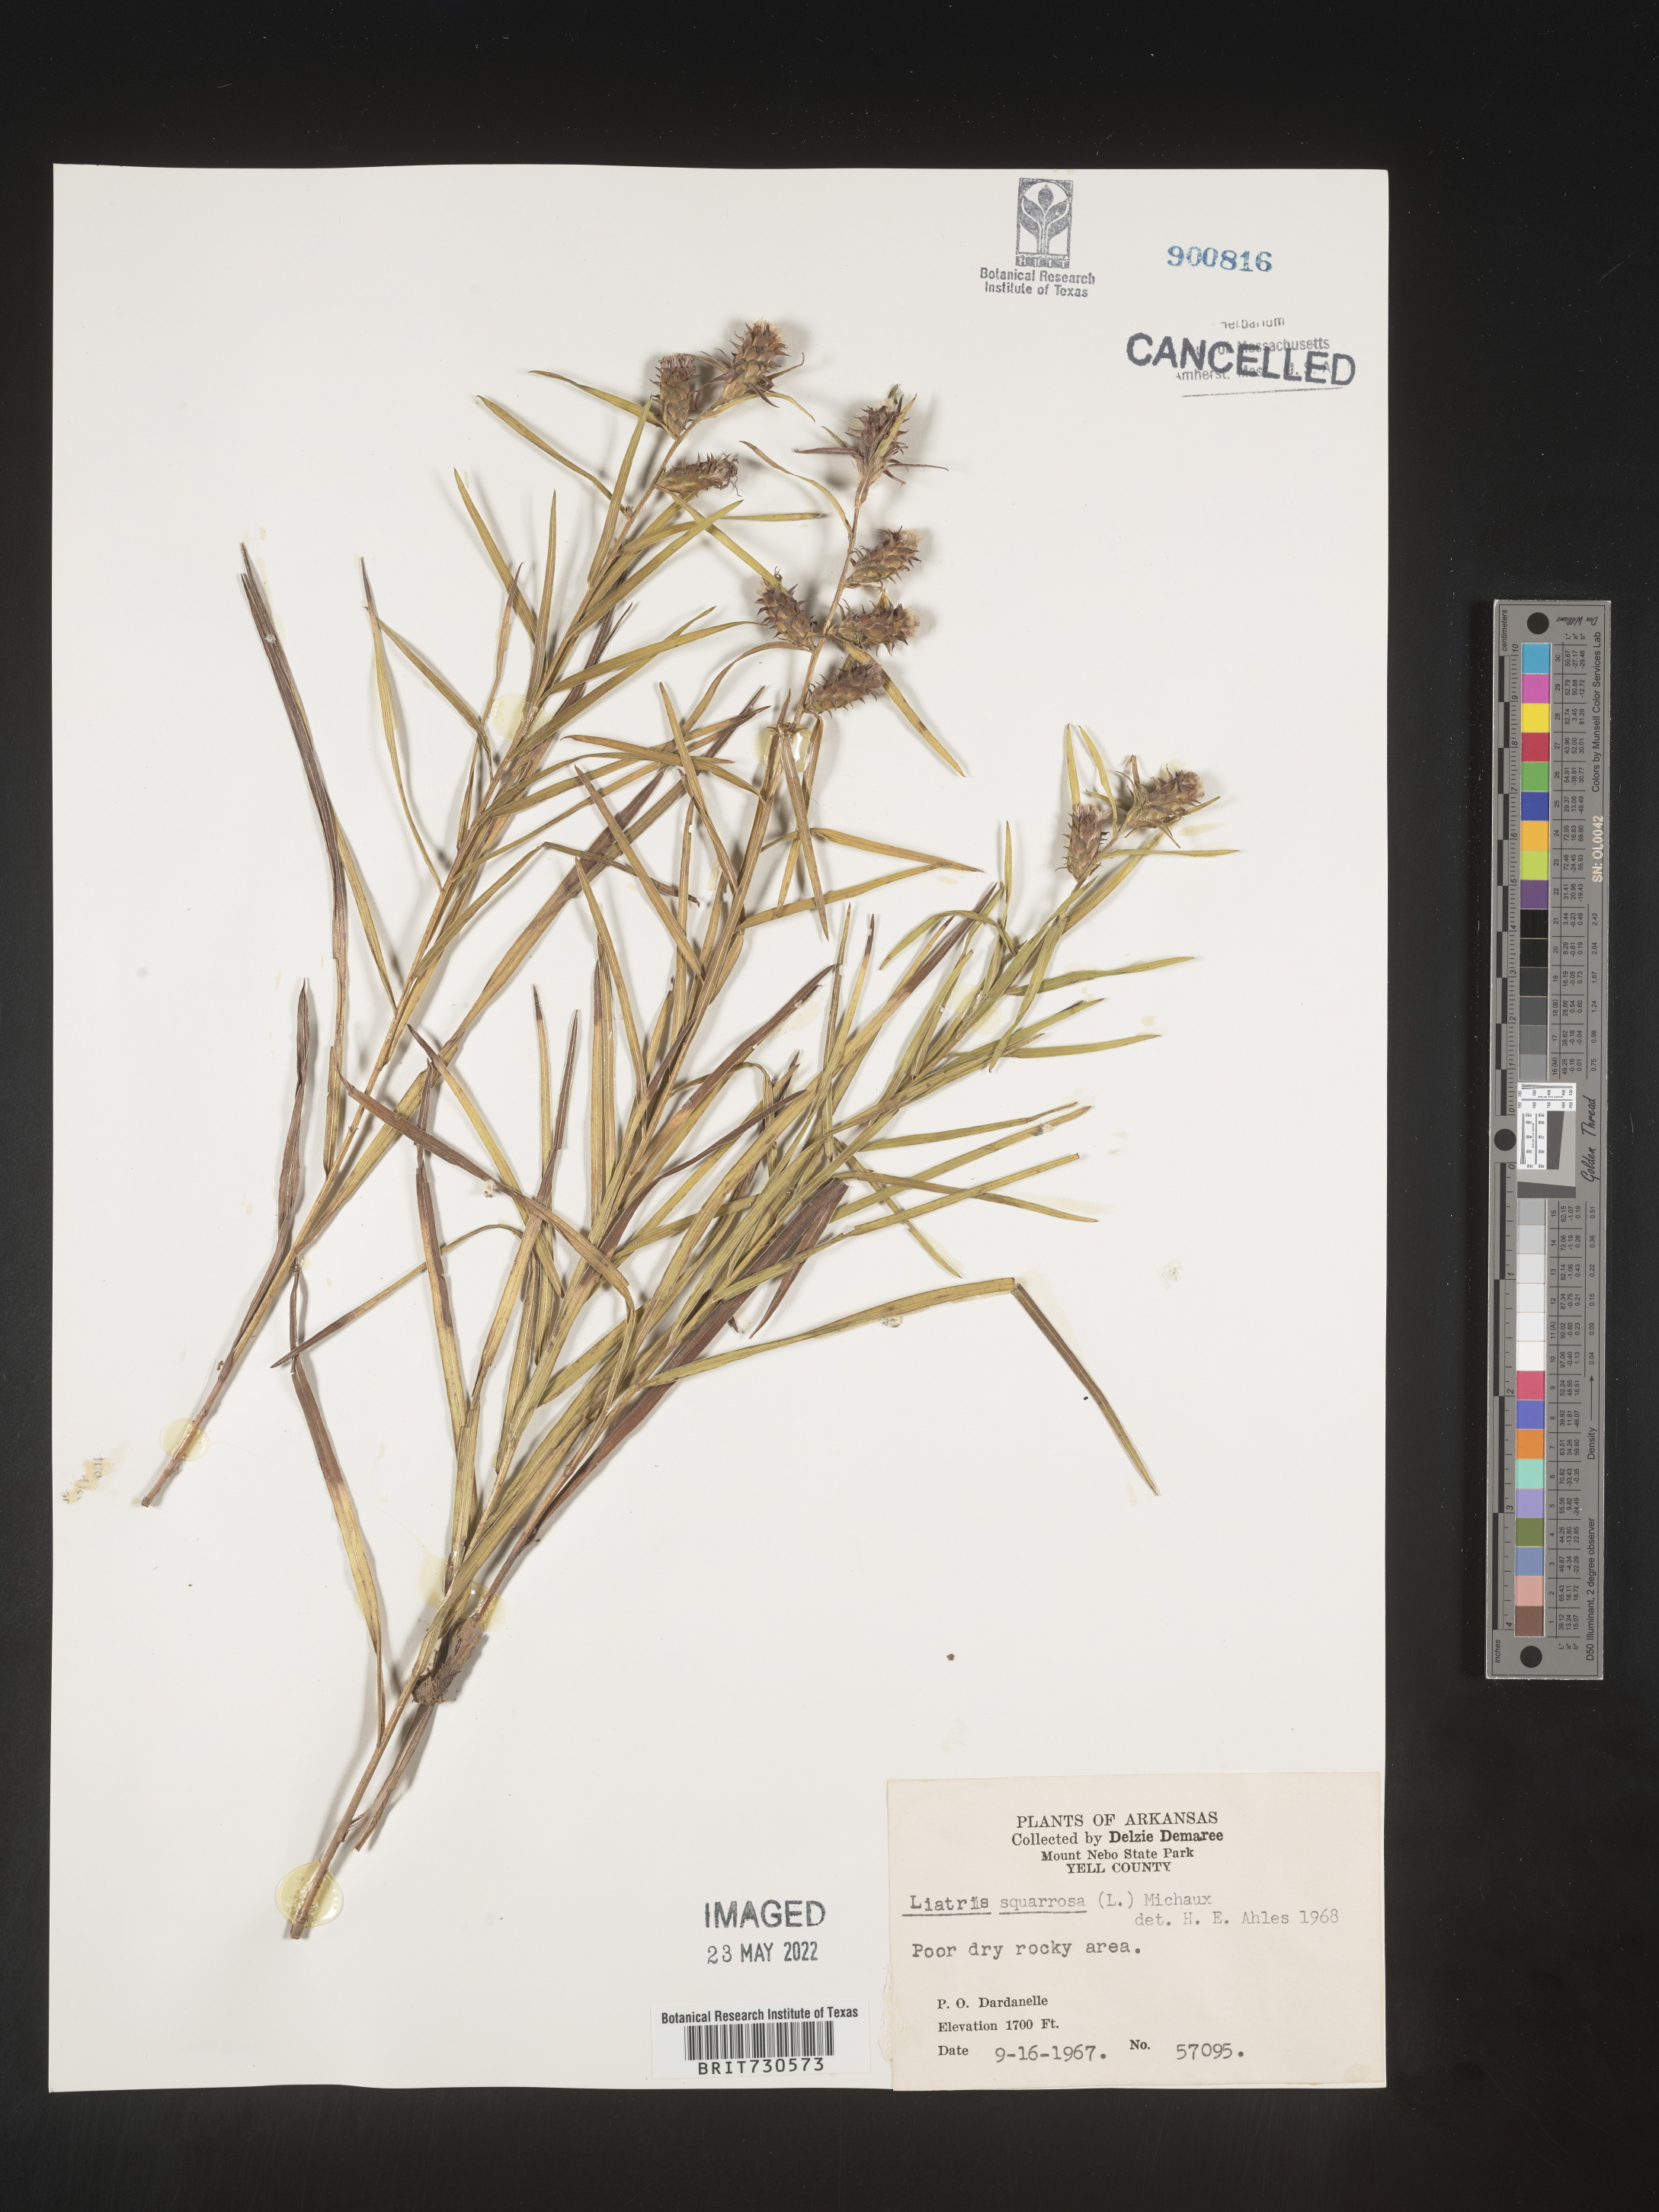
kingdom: Plantae
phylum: Tracheophyta
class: Magnoliopsida
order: Asterales
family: Asteraceae
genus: Liatris
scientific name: Liatris hirsuta
